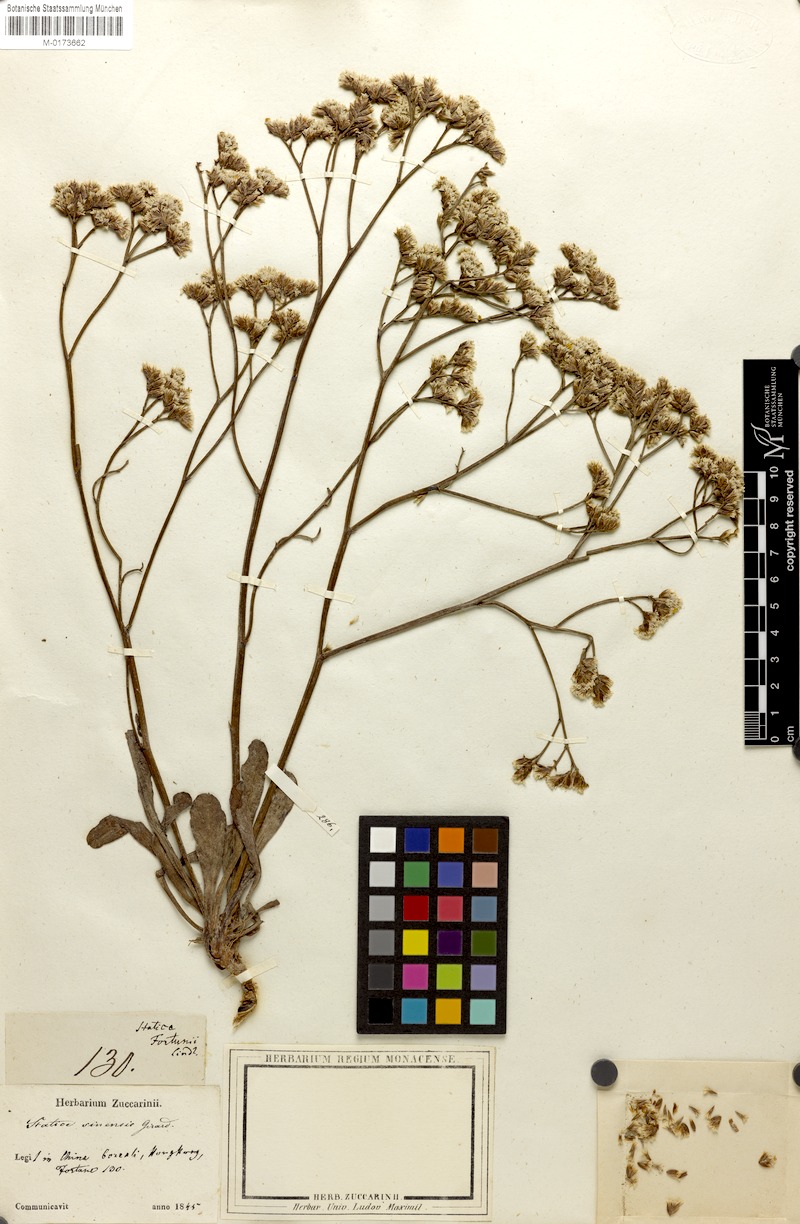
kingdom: Plantae
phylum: Tracheophyta
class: Magnoliopsida
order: Caryophyllales
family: Plumbaginaceae
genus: Limonium
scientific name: Limonium sinense
